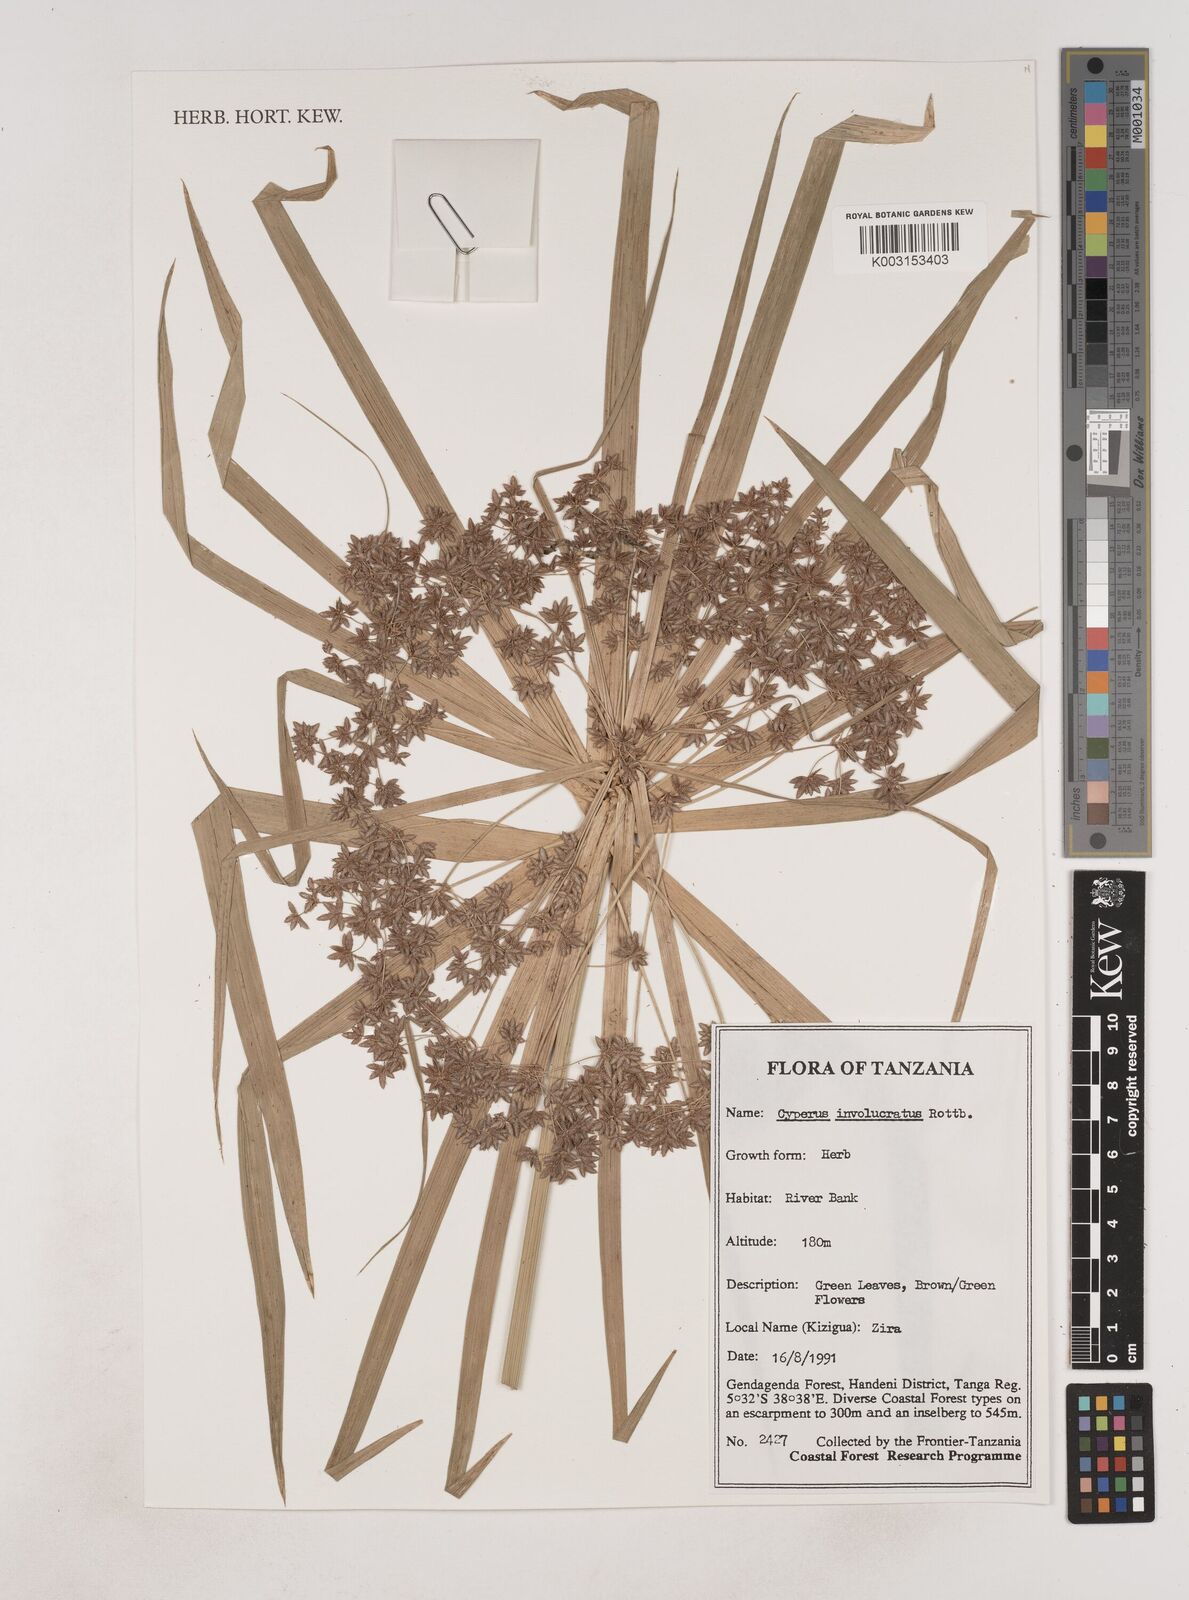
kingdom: Plantae
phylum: Tracheophyta
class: Liliopsida
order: Poales
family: Cyperaceae
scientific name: Cyperaceae
